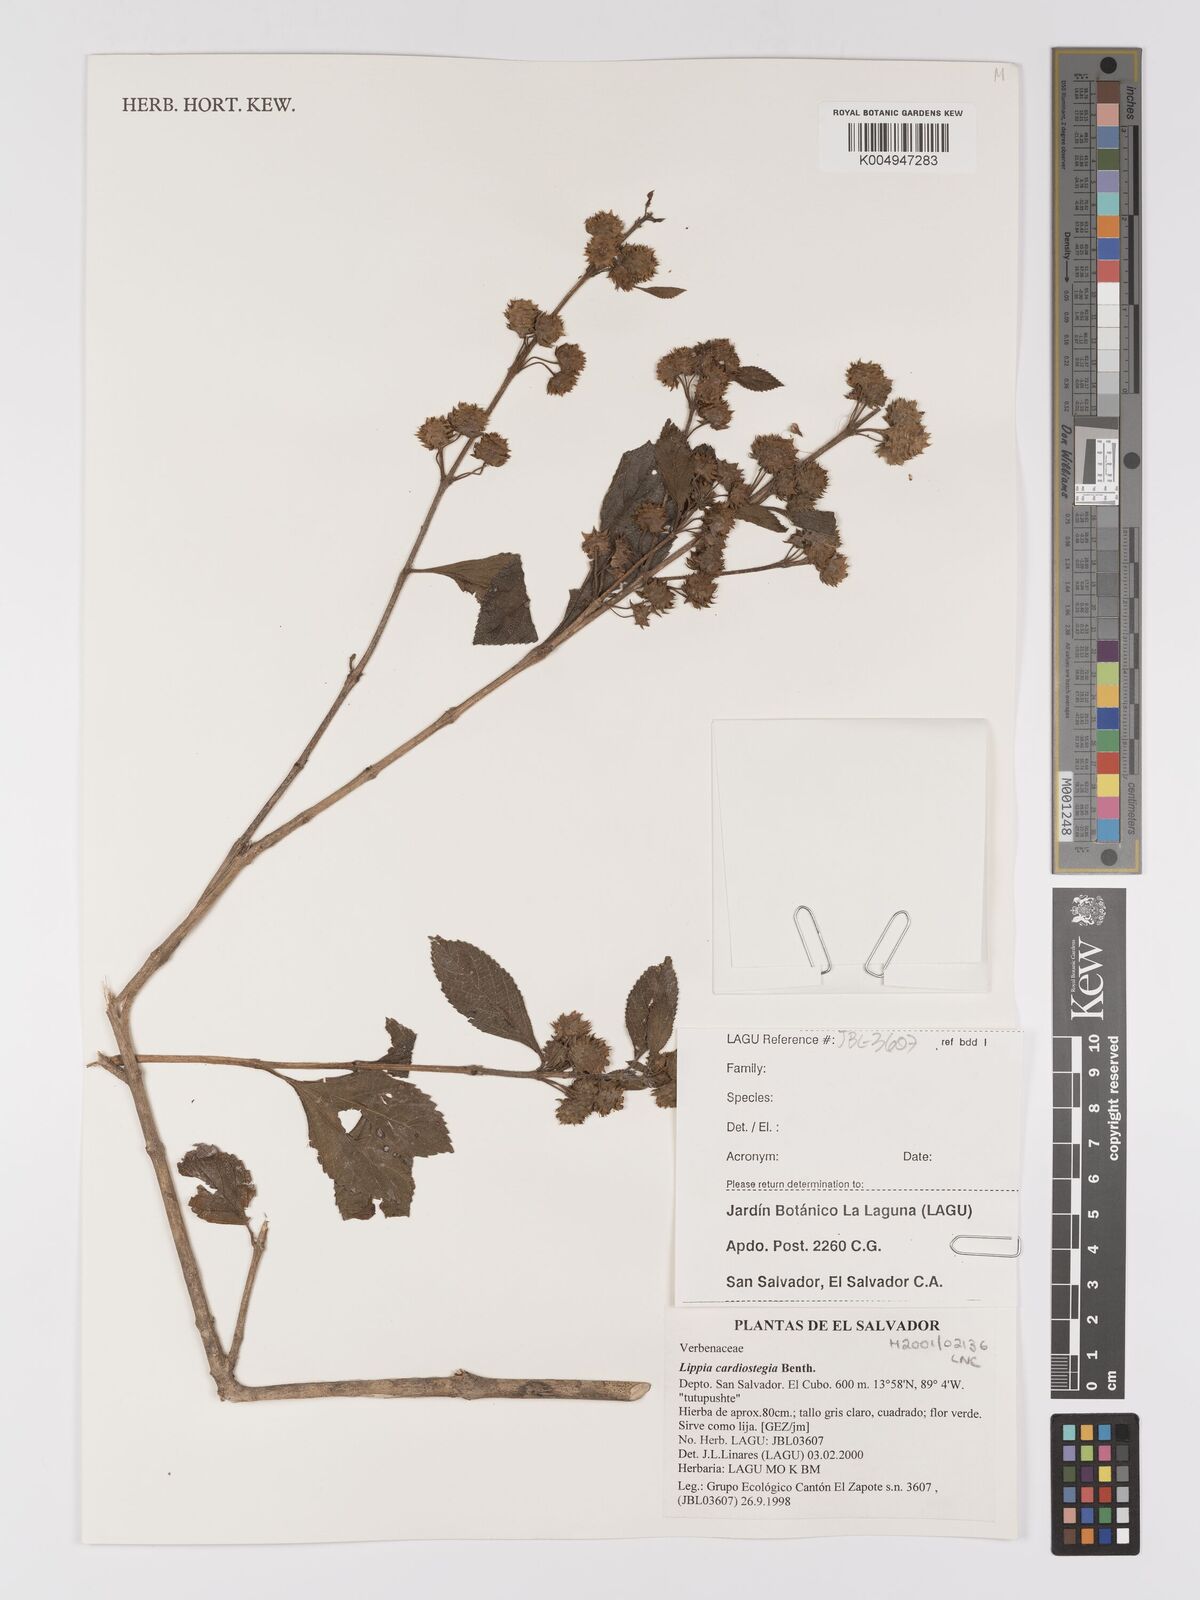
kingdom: Plantae
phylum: Tracheophyta
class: Magnoliopsida
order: Lamiales
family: Verbenaceae
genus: Lippia
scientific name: Lippia cardiostegia
